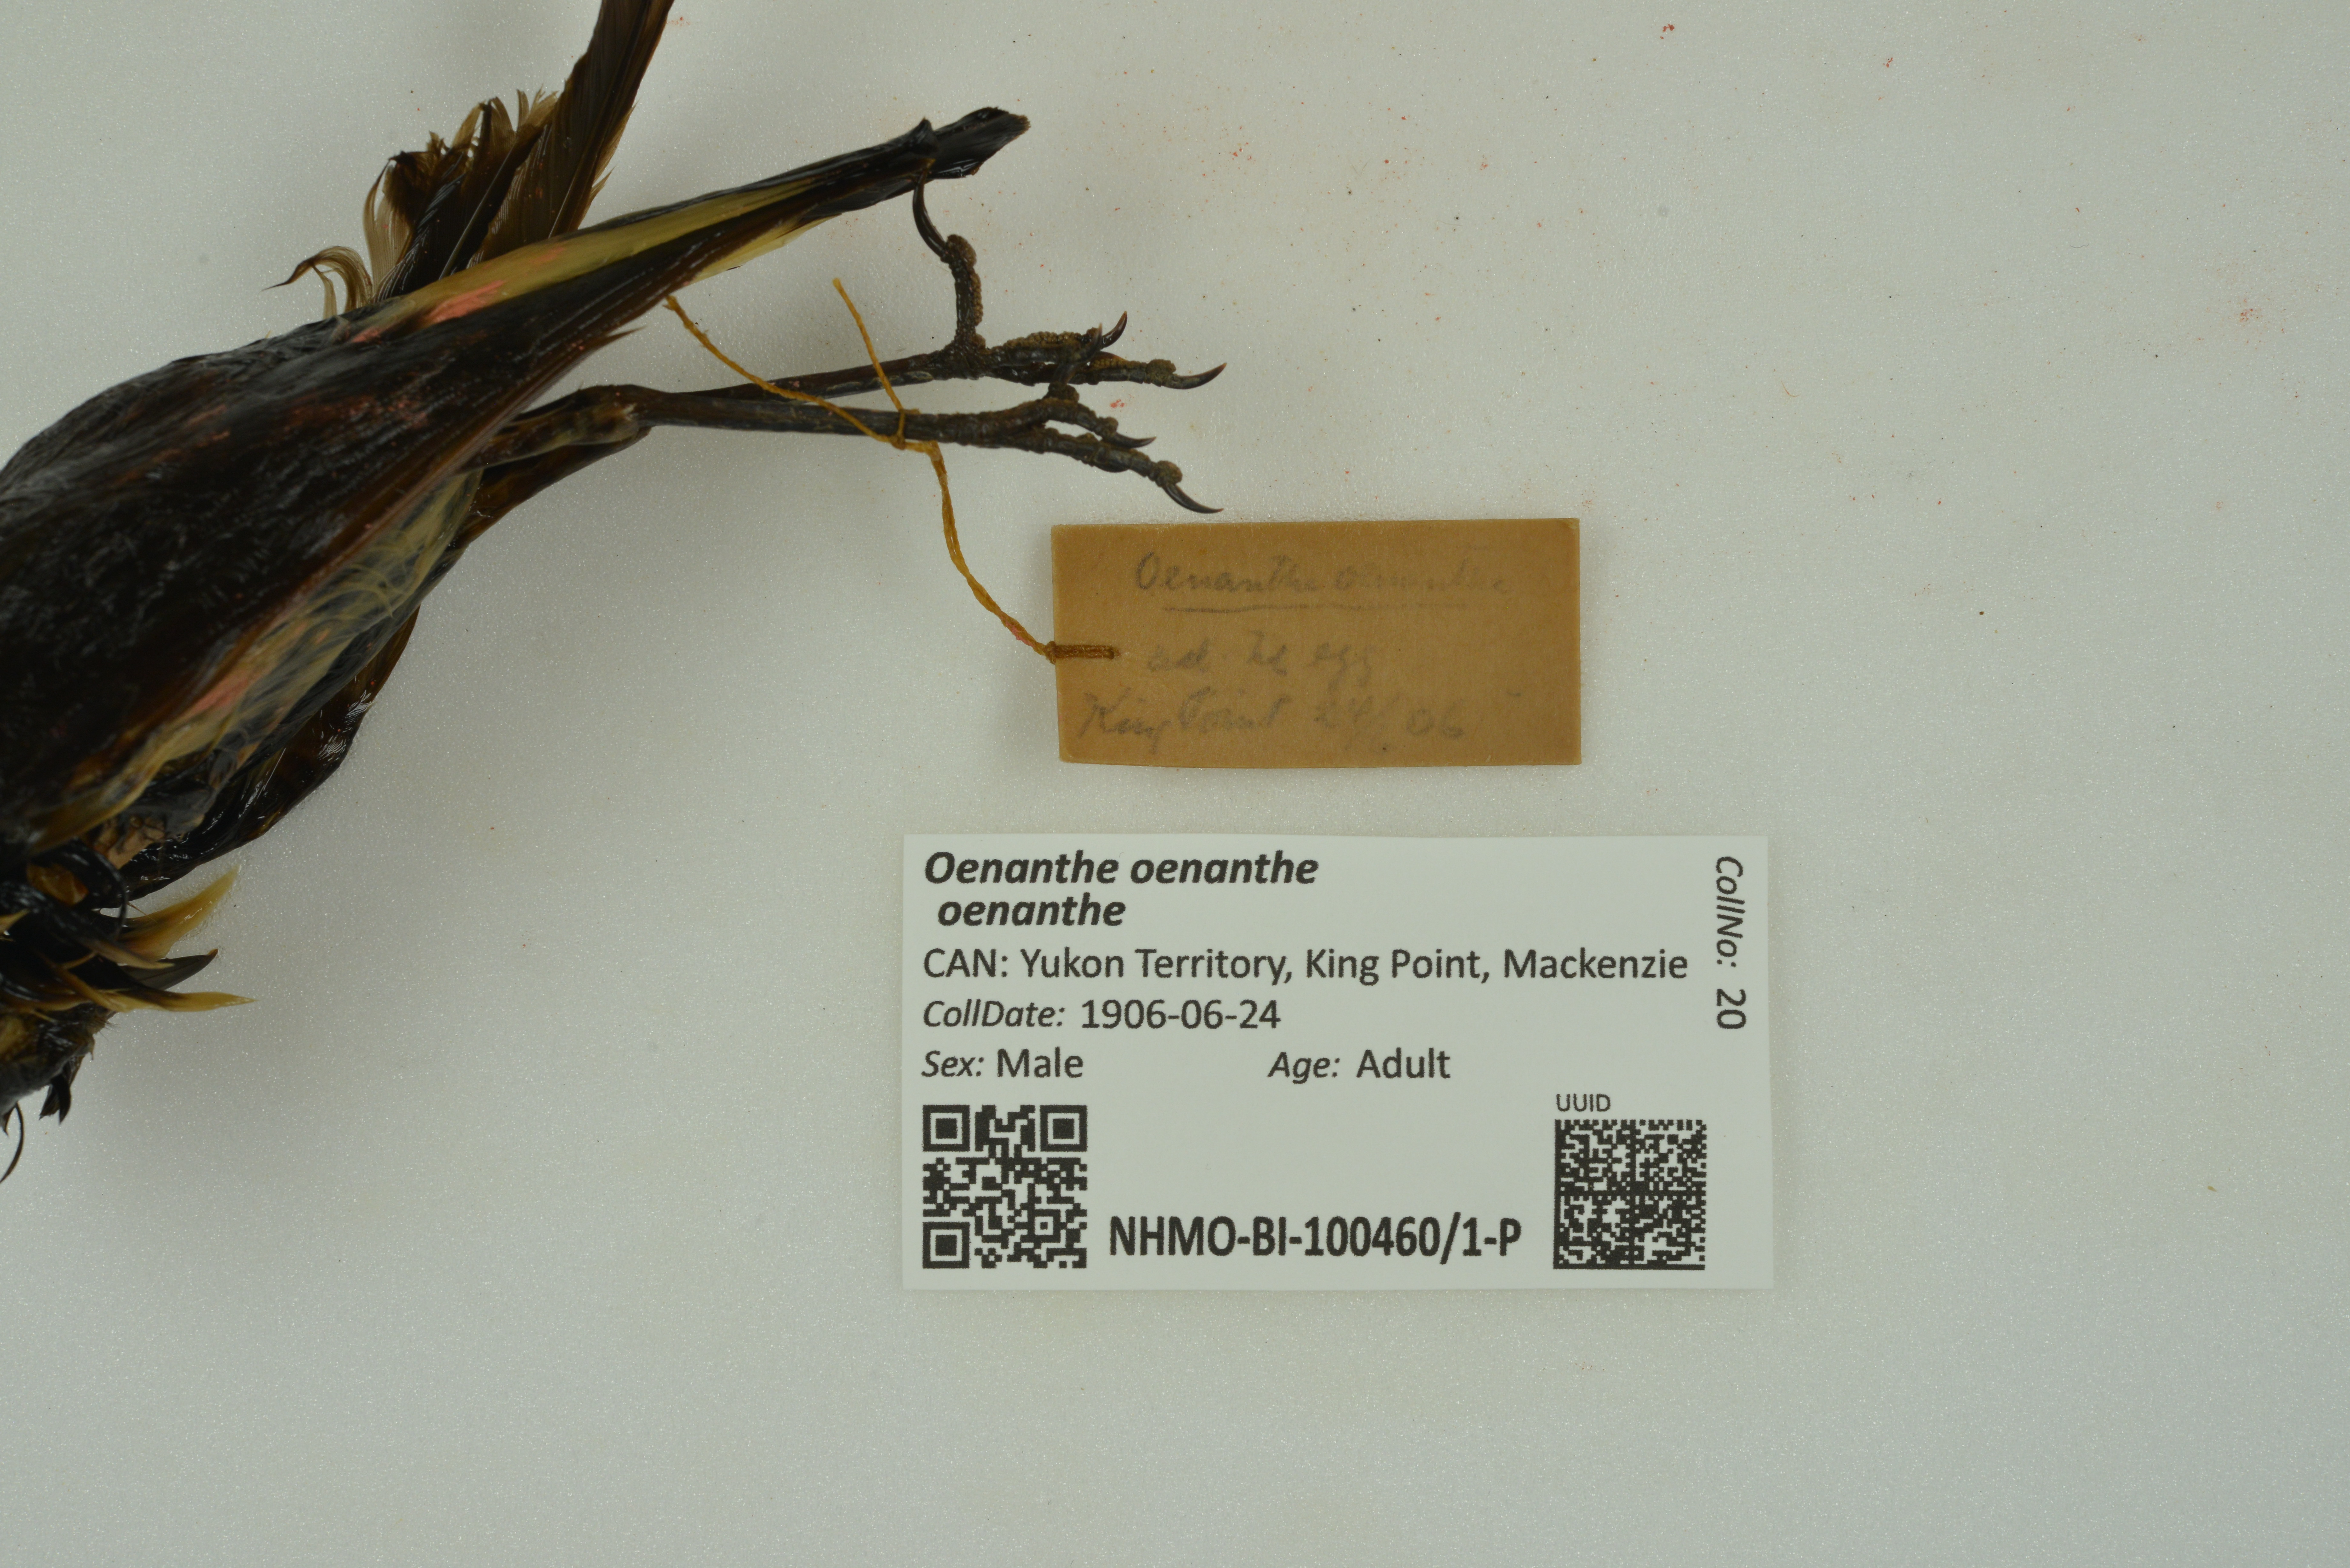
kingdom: Animalia
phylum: Chordata
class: Aves
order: Passeriformes
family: Muscicapidae
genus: Oenanthe
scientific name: Oenanthe oenanthe
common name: Northern wheatear
